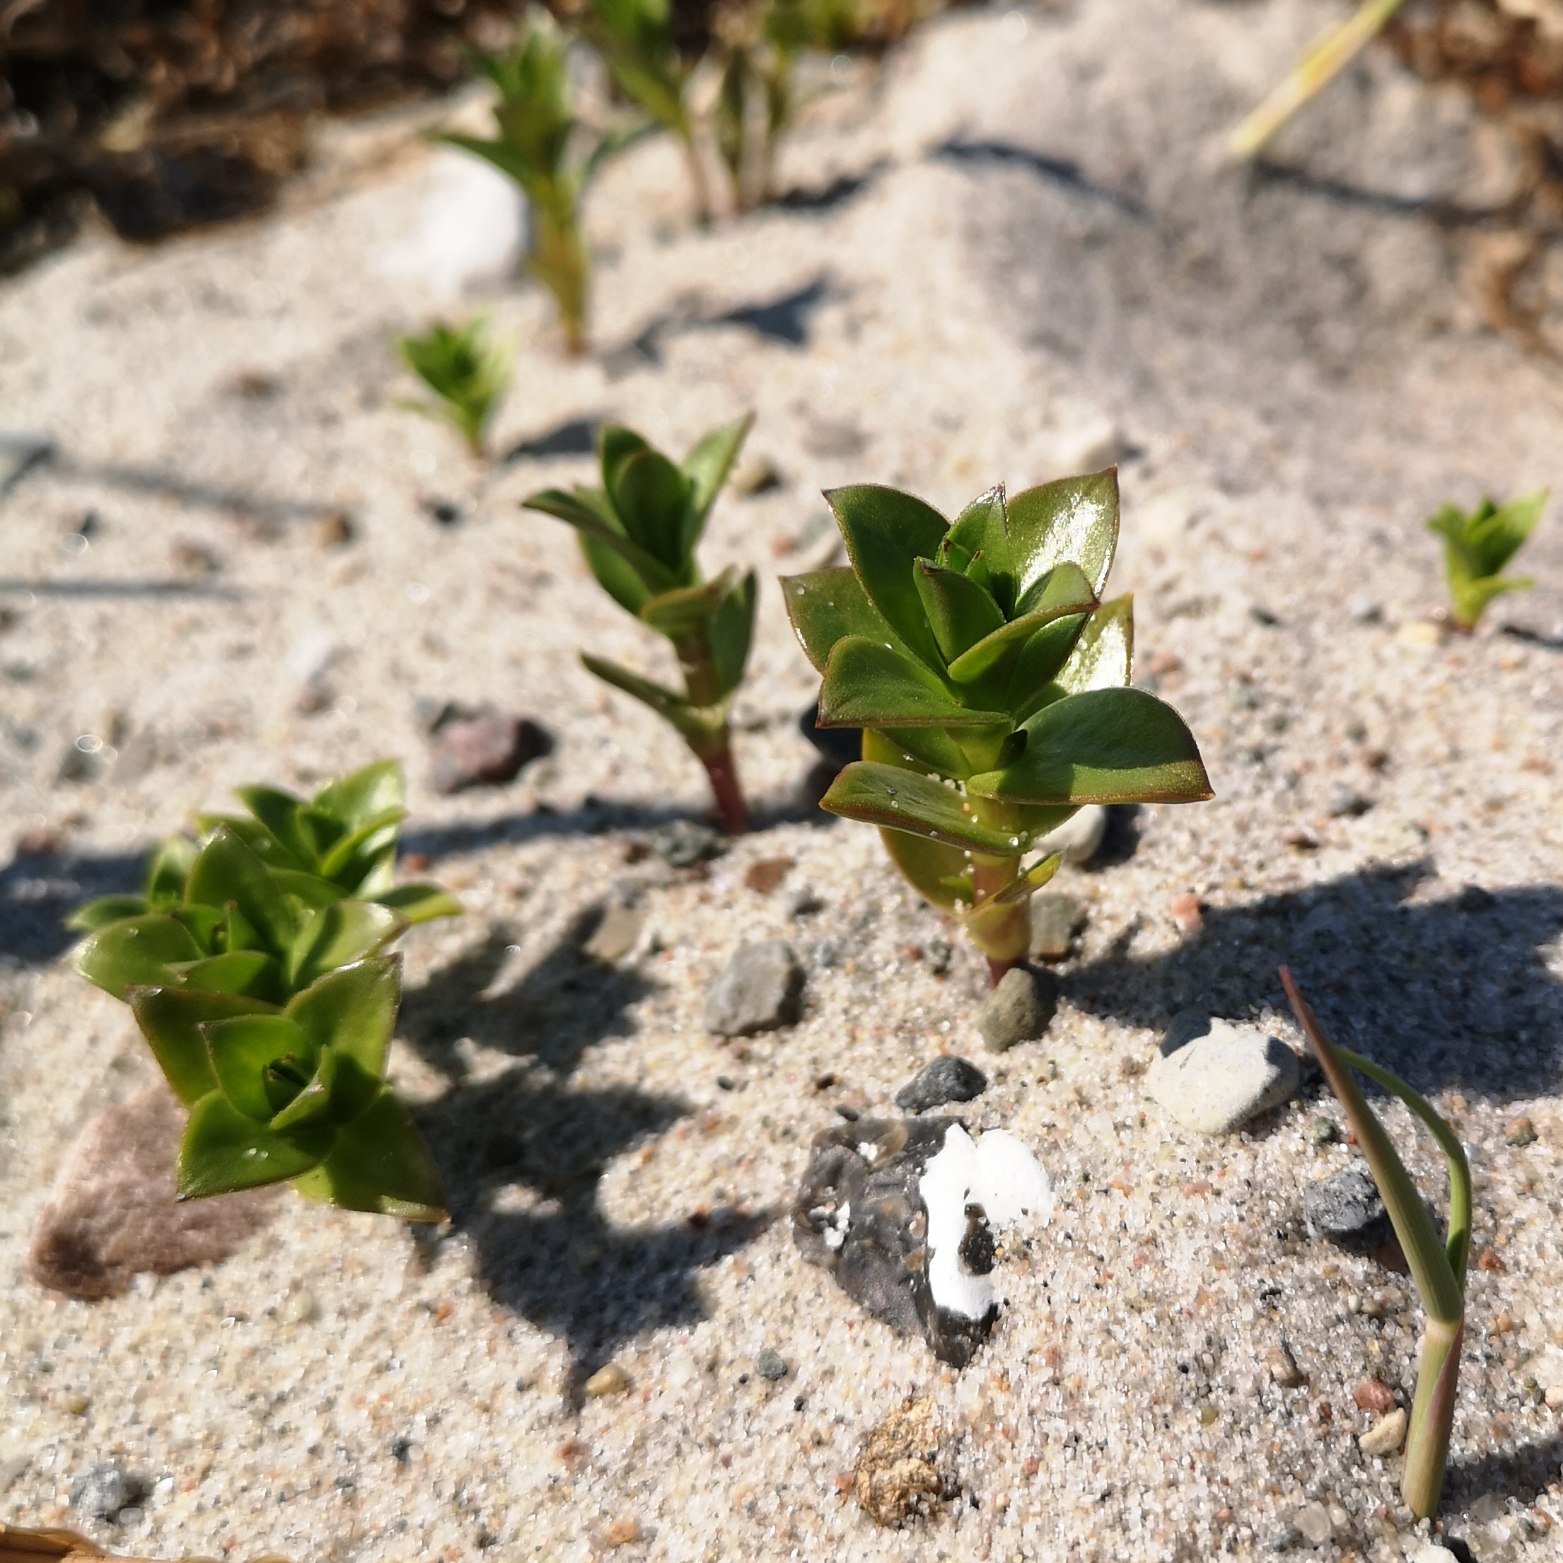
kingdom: Plantae
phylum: Tracheophyta
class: Magnoliopsida
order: Caryophyllales
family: Caryophyllaceae
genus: Honckenya
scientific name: Honckenya peploides
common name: Strandarve
